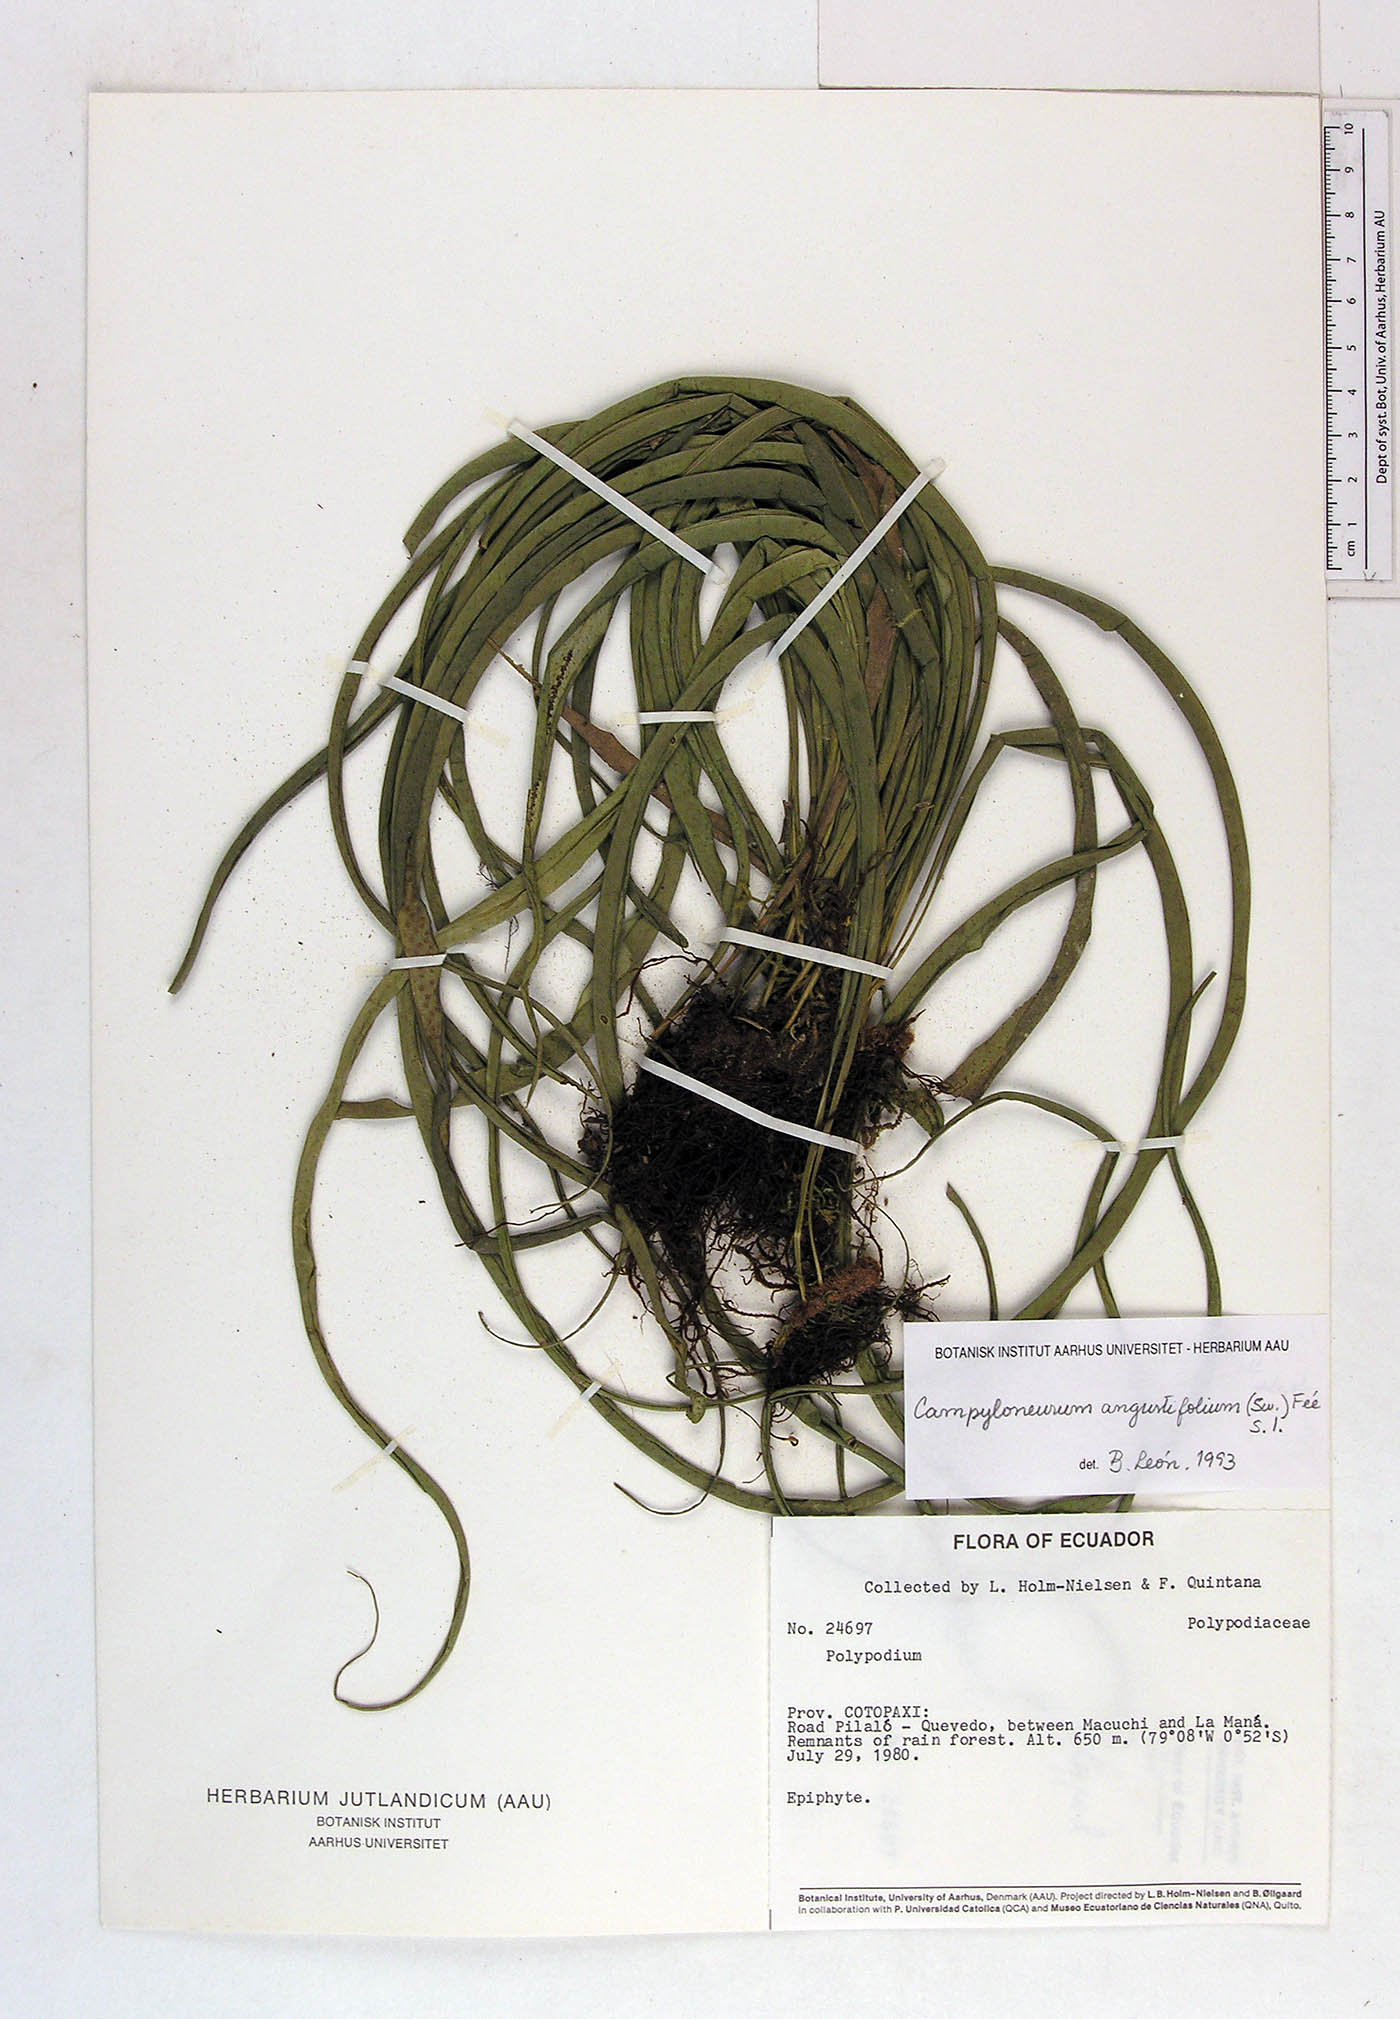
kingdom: Plantae
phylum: Tracheophyta
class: Polypodiopsida
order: Polypodiales
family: Polypodiaceae
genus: Campyloneurum
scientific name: Campyloneurum angustifolium
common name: Narrow-leaf strap fern
